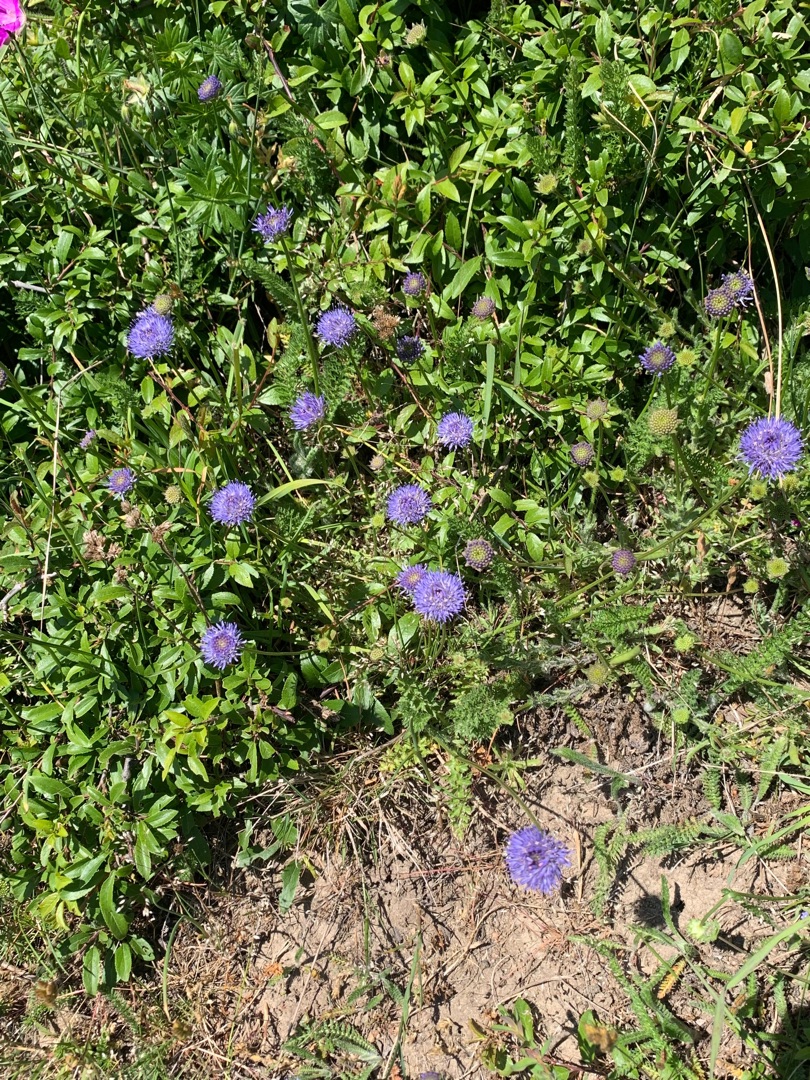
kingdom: Plantae
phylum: Tracheophyta
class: Magnoliopsida
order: Asterales
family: Campanulaceae
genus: Jasione
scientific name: Jasione montana
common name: Blåmunke
